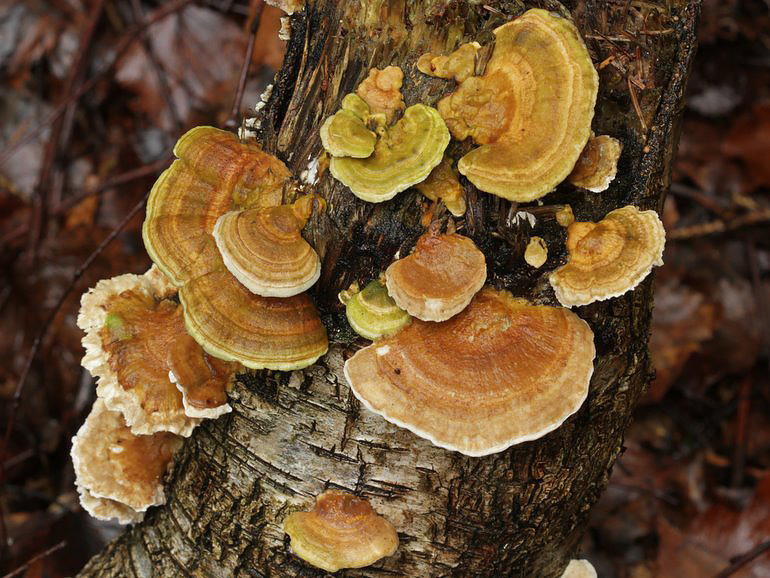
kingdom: Fungi
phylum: Basidiomycota
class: Agaricomycetes
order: Polyporales
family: Polyporaceae
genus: Trametes
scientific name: Trametes ochracea
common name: bæltet læderporesvamp
